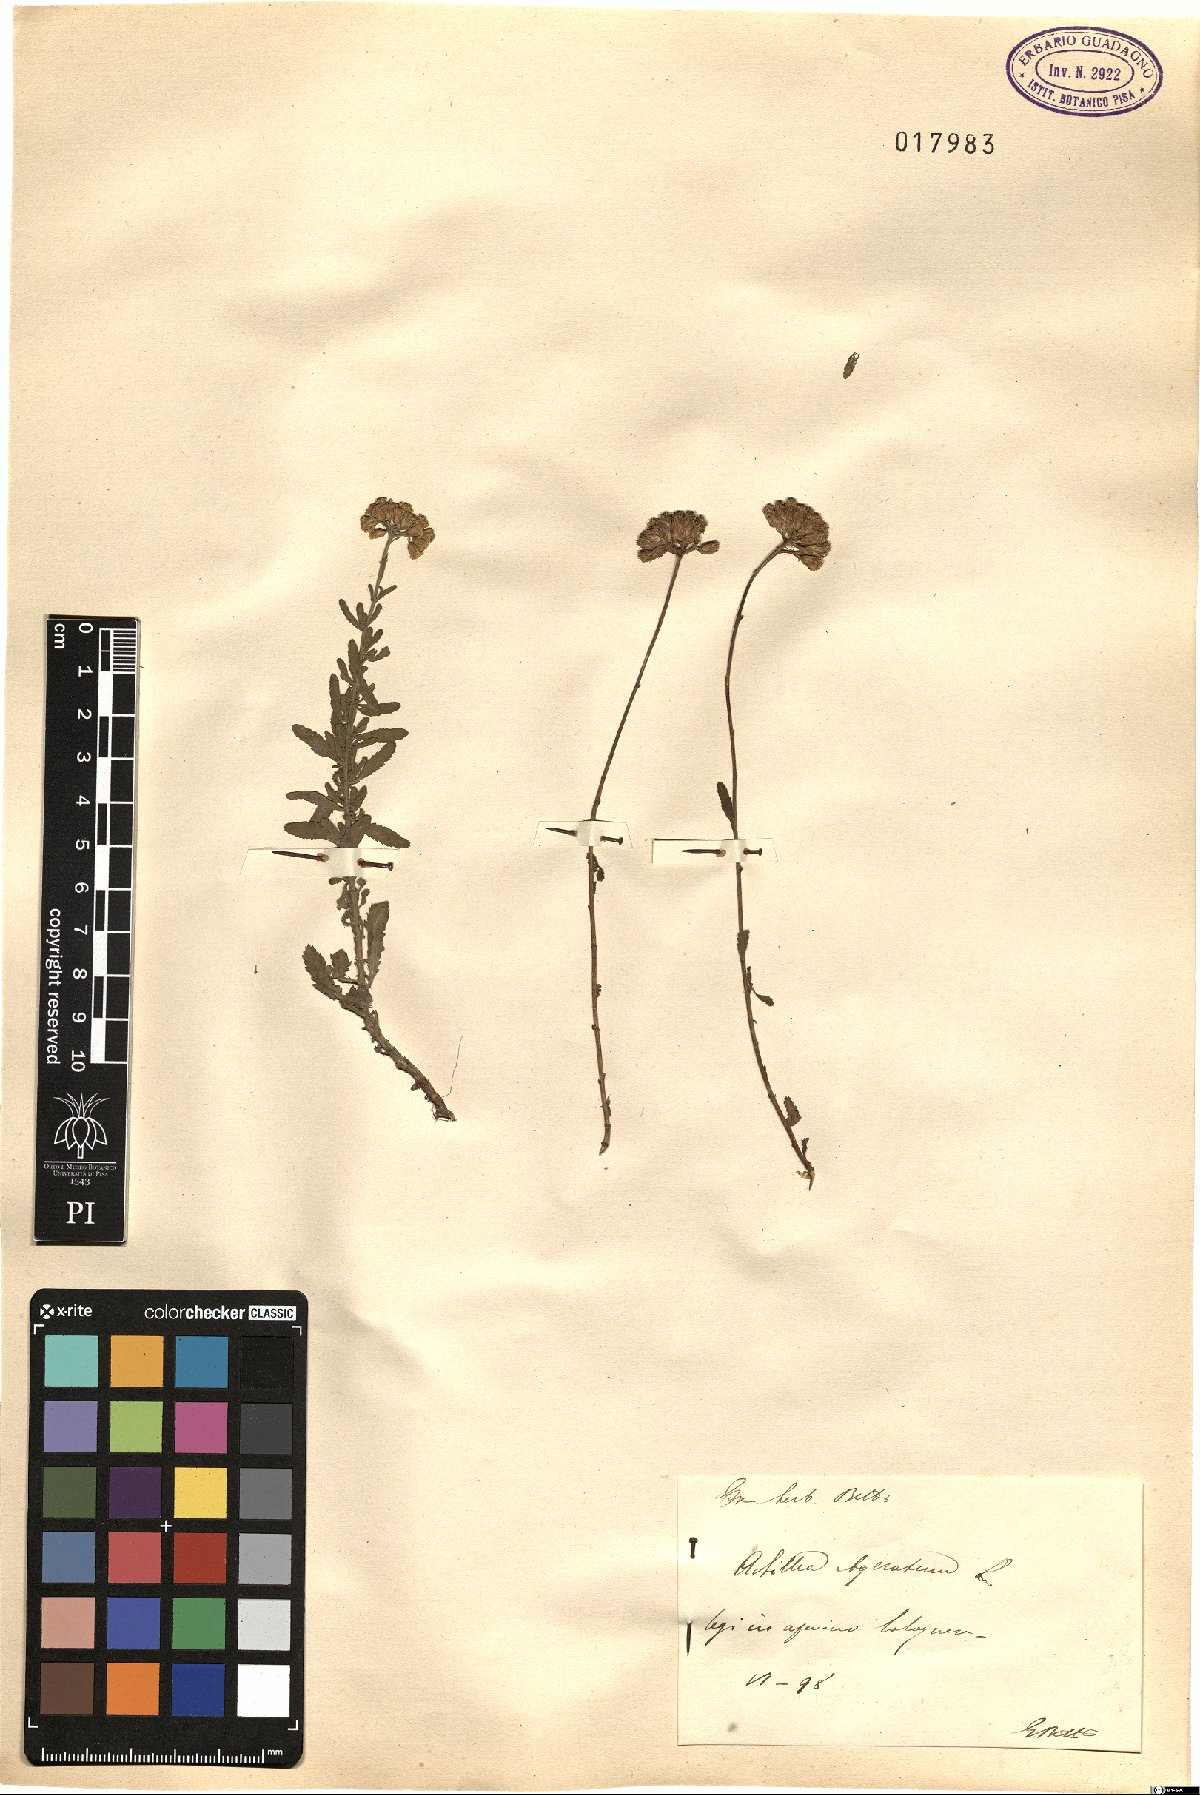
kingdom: Plantae
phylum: Tracheophyta
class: Magnoliopsida
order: Asterales
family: Asteraceae
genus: Achillea
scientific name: Achillea ageratum
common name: Sweet-nancy
